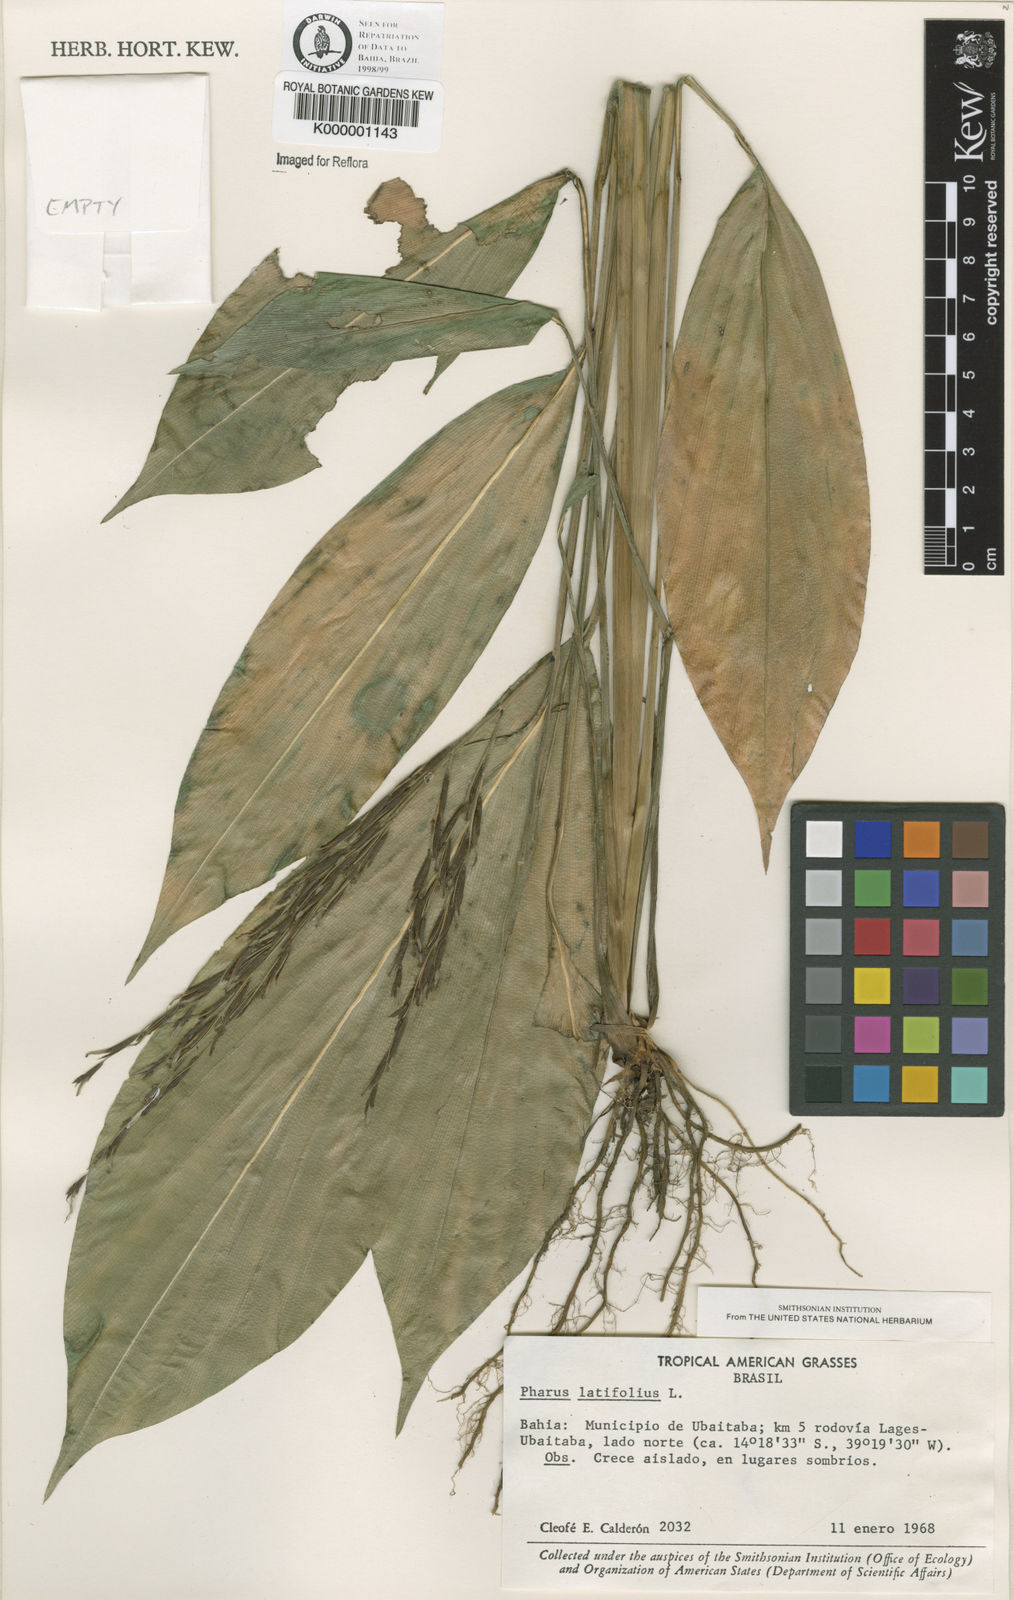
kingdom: Plantae
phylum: Tracheophyta
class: Liliopsida
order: Poales
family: Poaceae
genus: Pharus
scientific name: Pharus latifolius
